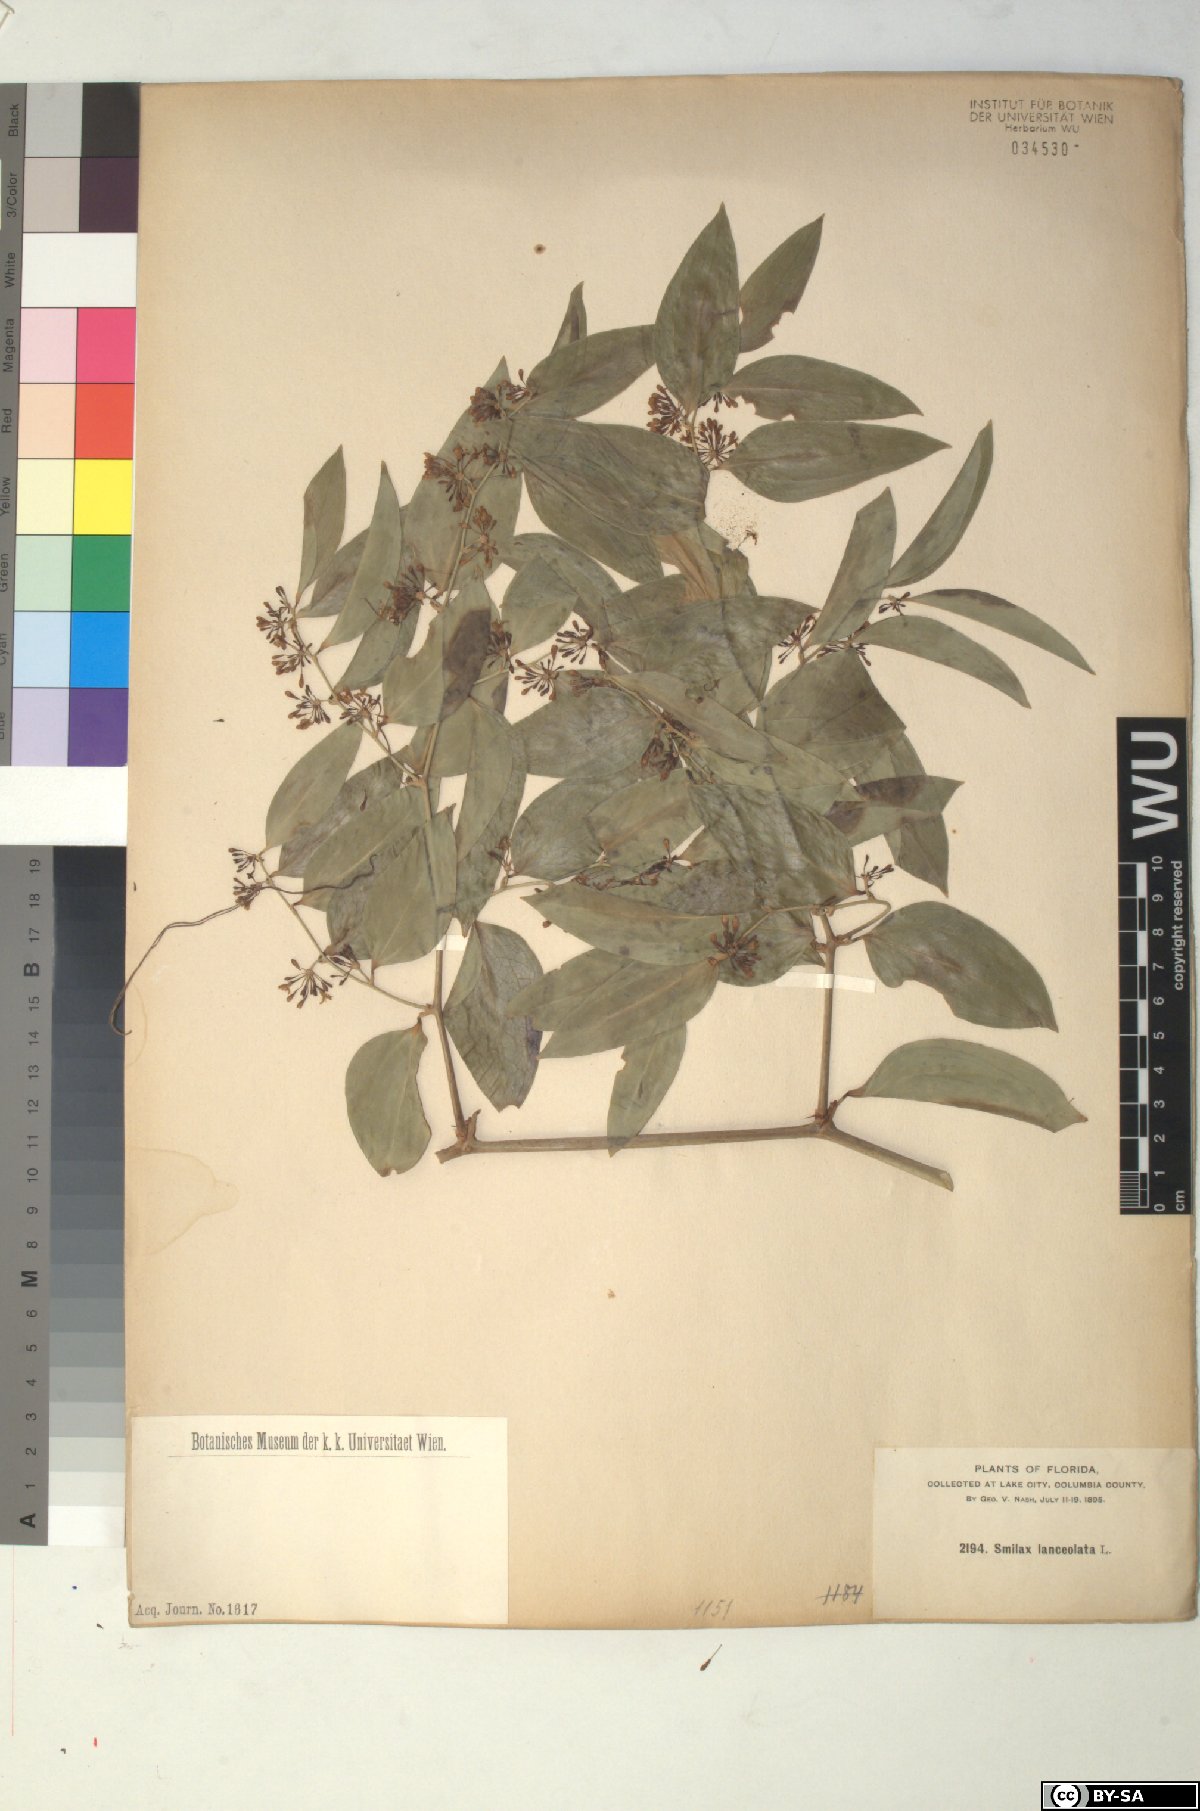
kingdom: Plantae
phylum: Tracheophyta
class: Liliopsida
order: Liliales
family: Smilacaceae
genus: Smilax
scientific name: Smilax laurifolia
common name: Bamboovine
